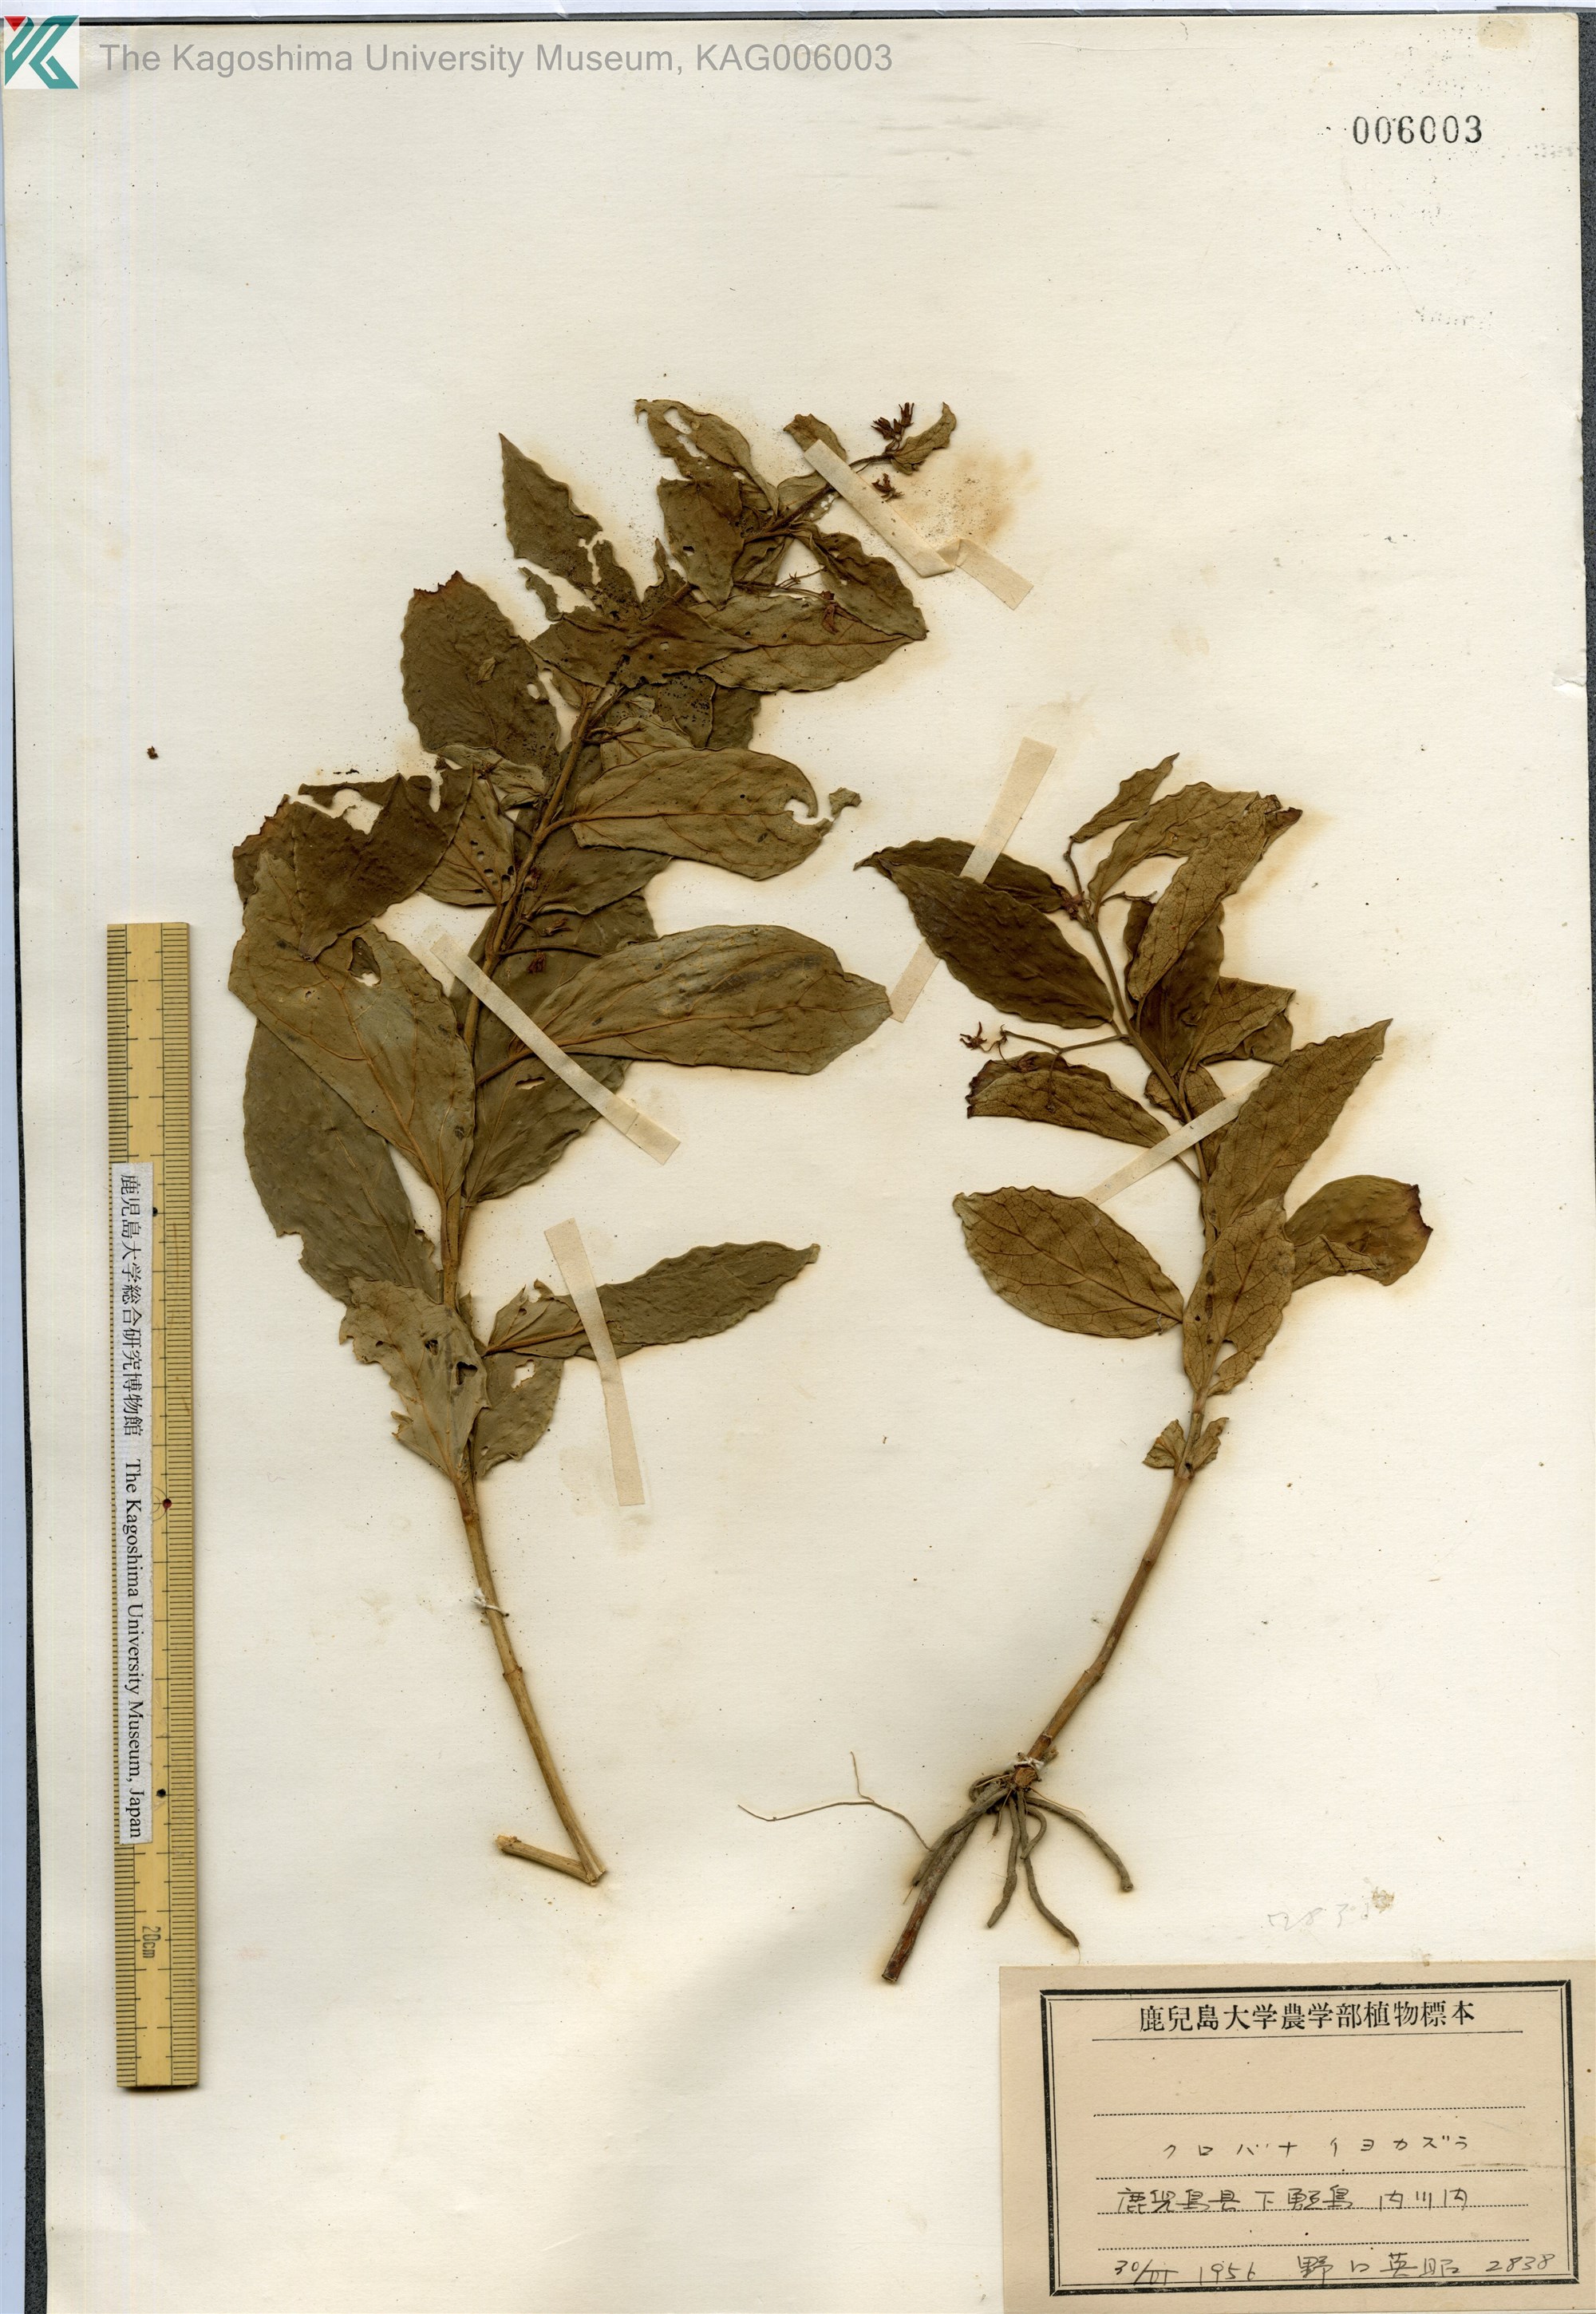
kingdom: Plantae
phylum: Tracheophyta
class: Magnoliopsida
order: Gentianales
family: Apocynaceae
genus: Vincetoxicum
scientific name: Vincetoxicum japonicum
